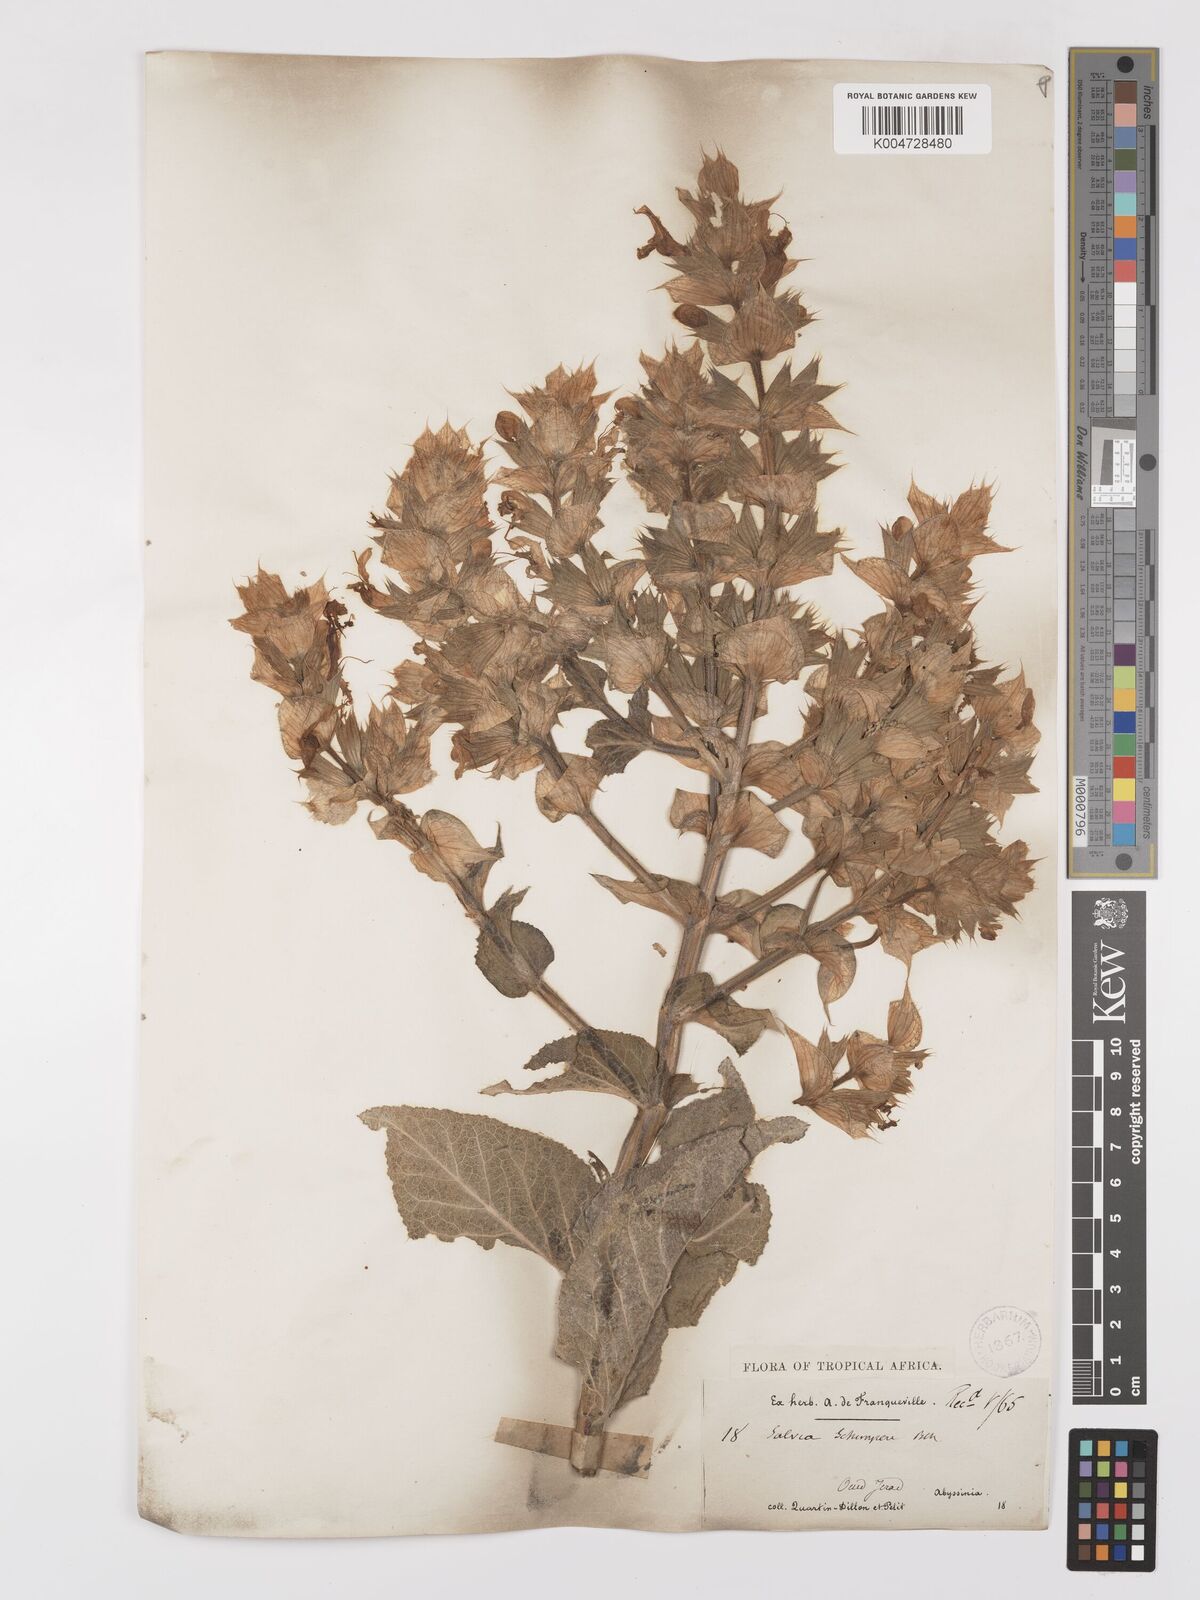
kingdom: Plantae
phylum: Tracheophyta
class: Magnoliopsida
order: Lamiales
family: Lamiaceae
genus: Salvia
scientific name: Salvia schimperi
